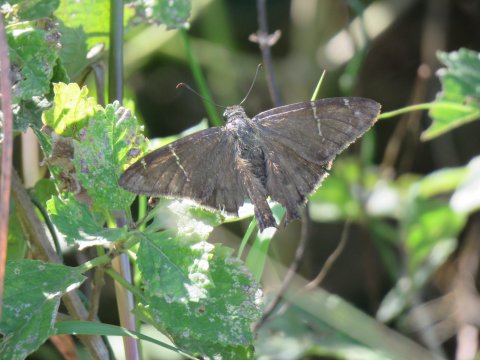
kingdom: Animalia
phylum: Arthropoda
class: Insecta
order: Lepidoptera
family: Hesperiidae
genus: Urbanus
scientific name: Urbanus procne
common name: Brown Longtail
